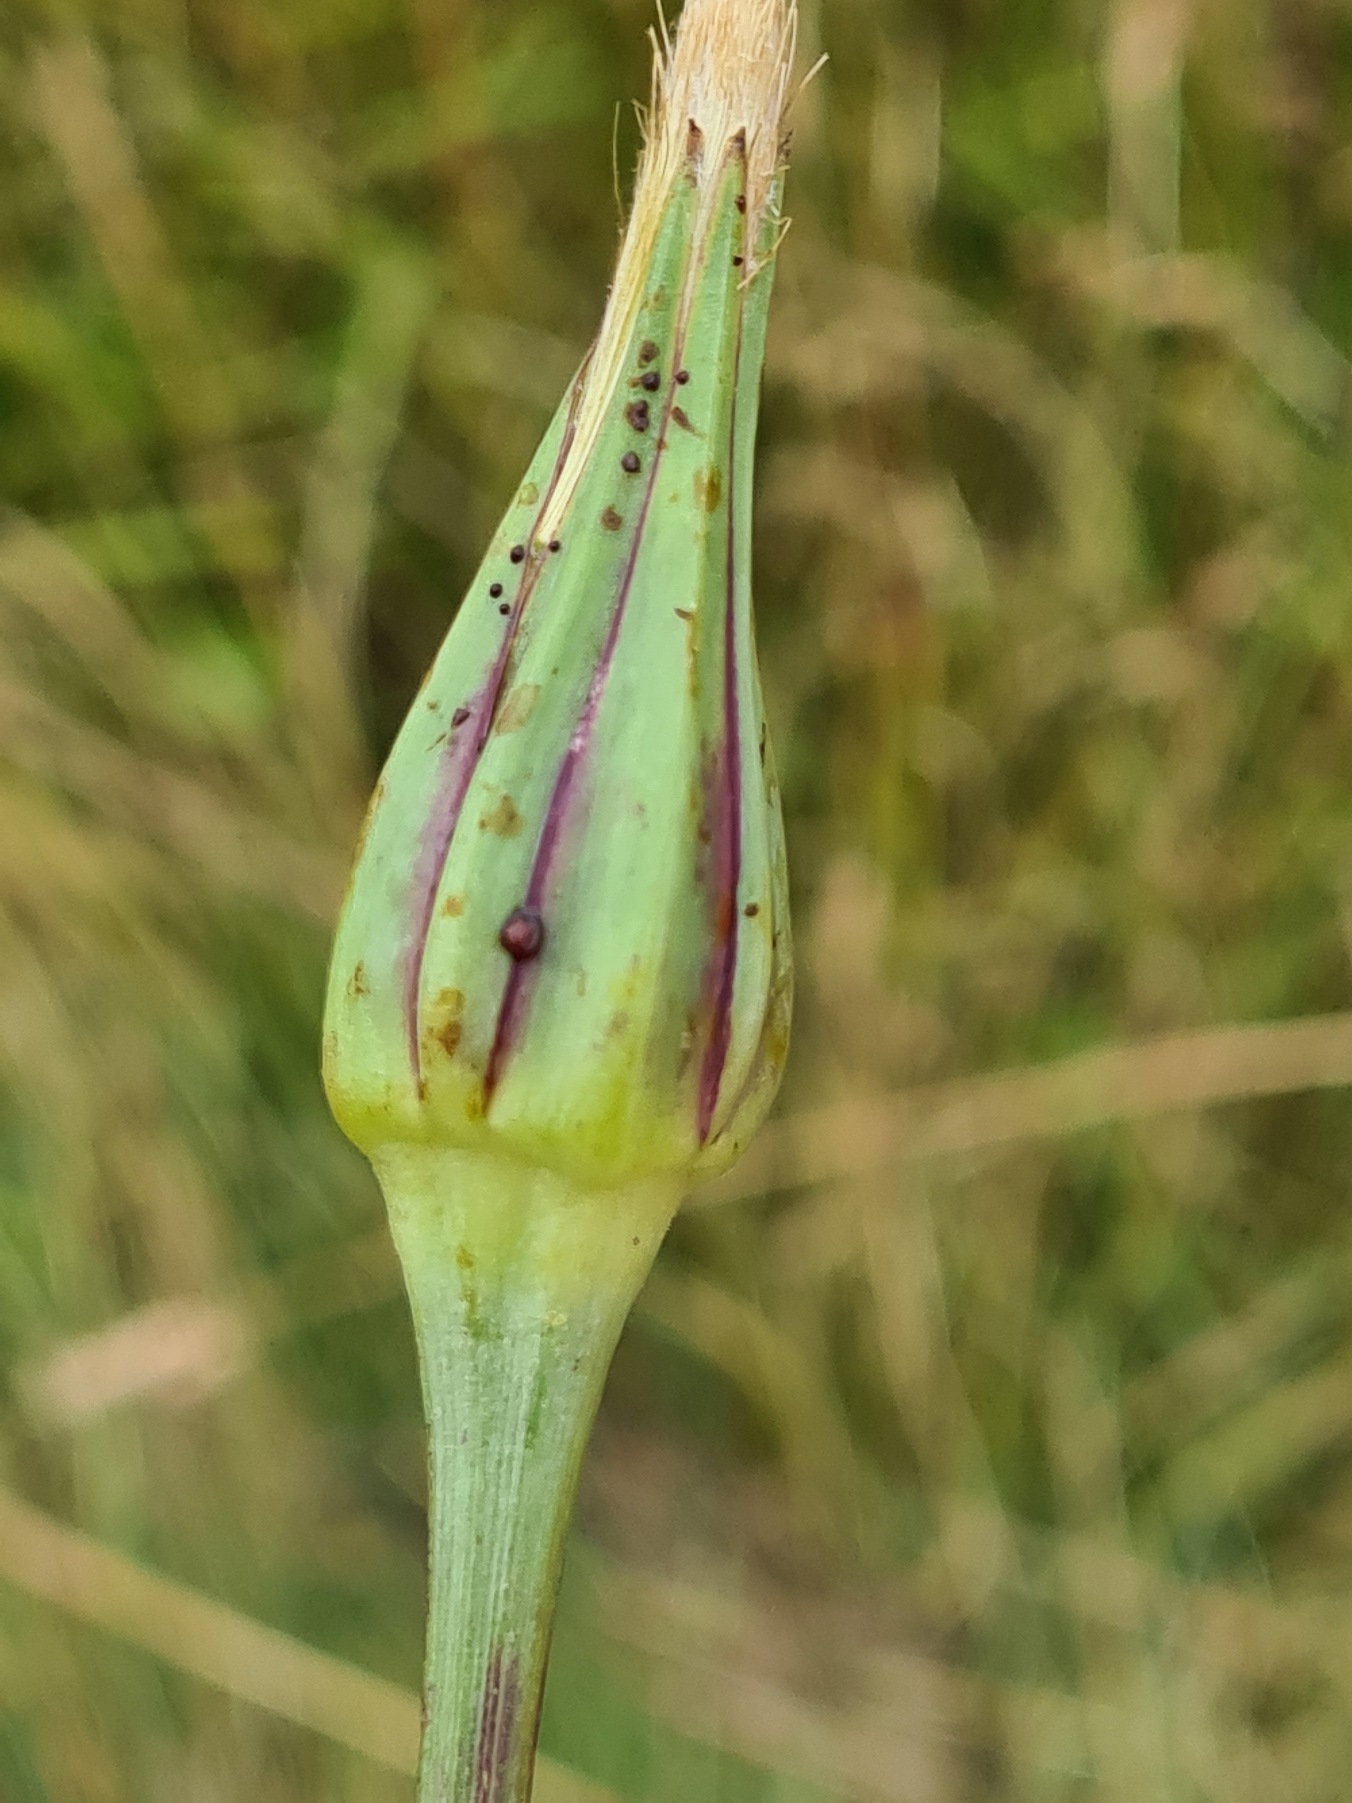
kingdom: Plantae
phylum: Tracheophyta
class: Magnoliopsida
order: Asterales
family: Asteraceae
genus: Tragopogon
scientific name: Tragopogon pratensis
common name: Gedeskæg
